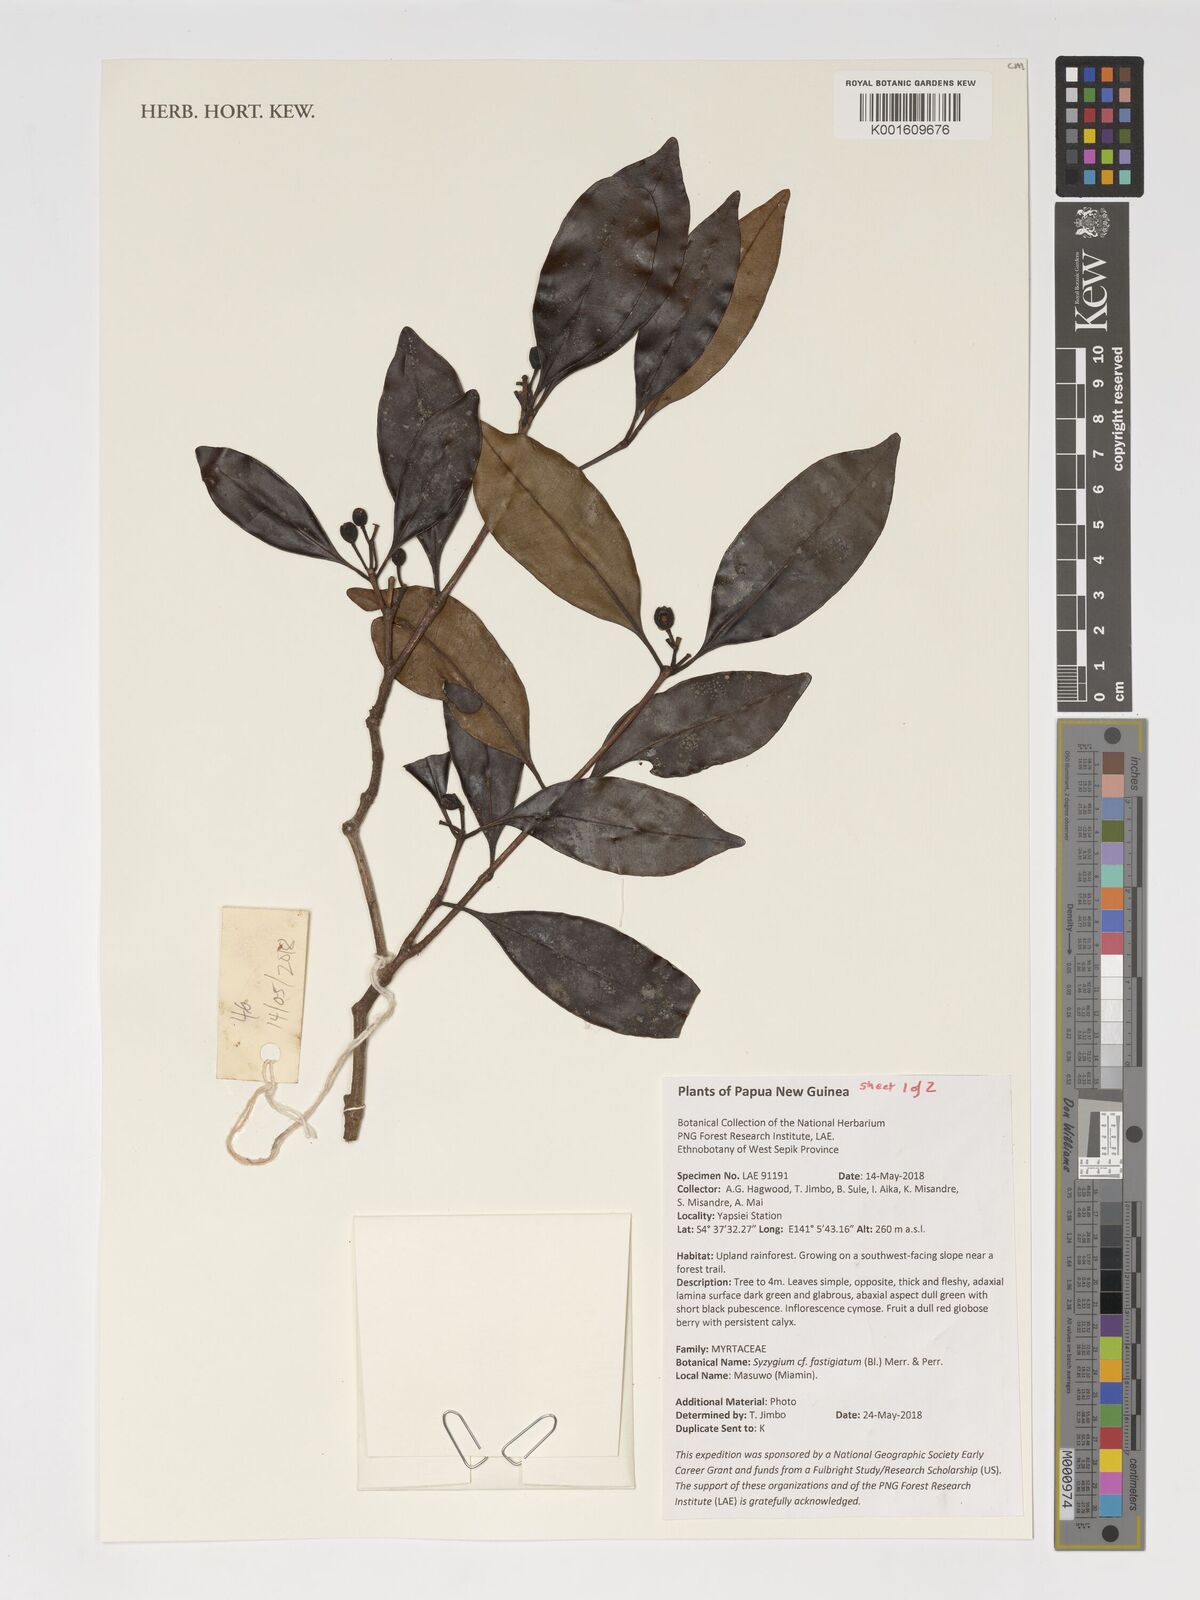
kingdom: Plantae
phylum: Tracheophyta
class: Magnoliopsida
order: Myrtales
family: Myrtaceae
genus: Syzygium
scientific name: Syzygium fastigiatum
